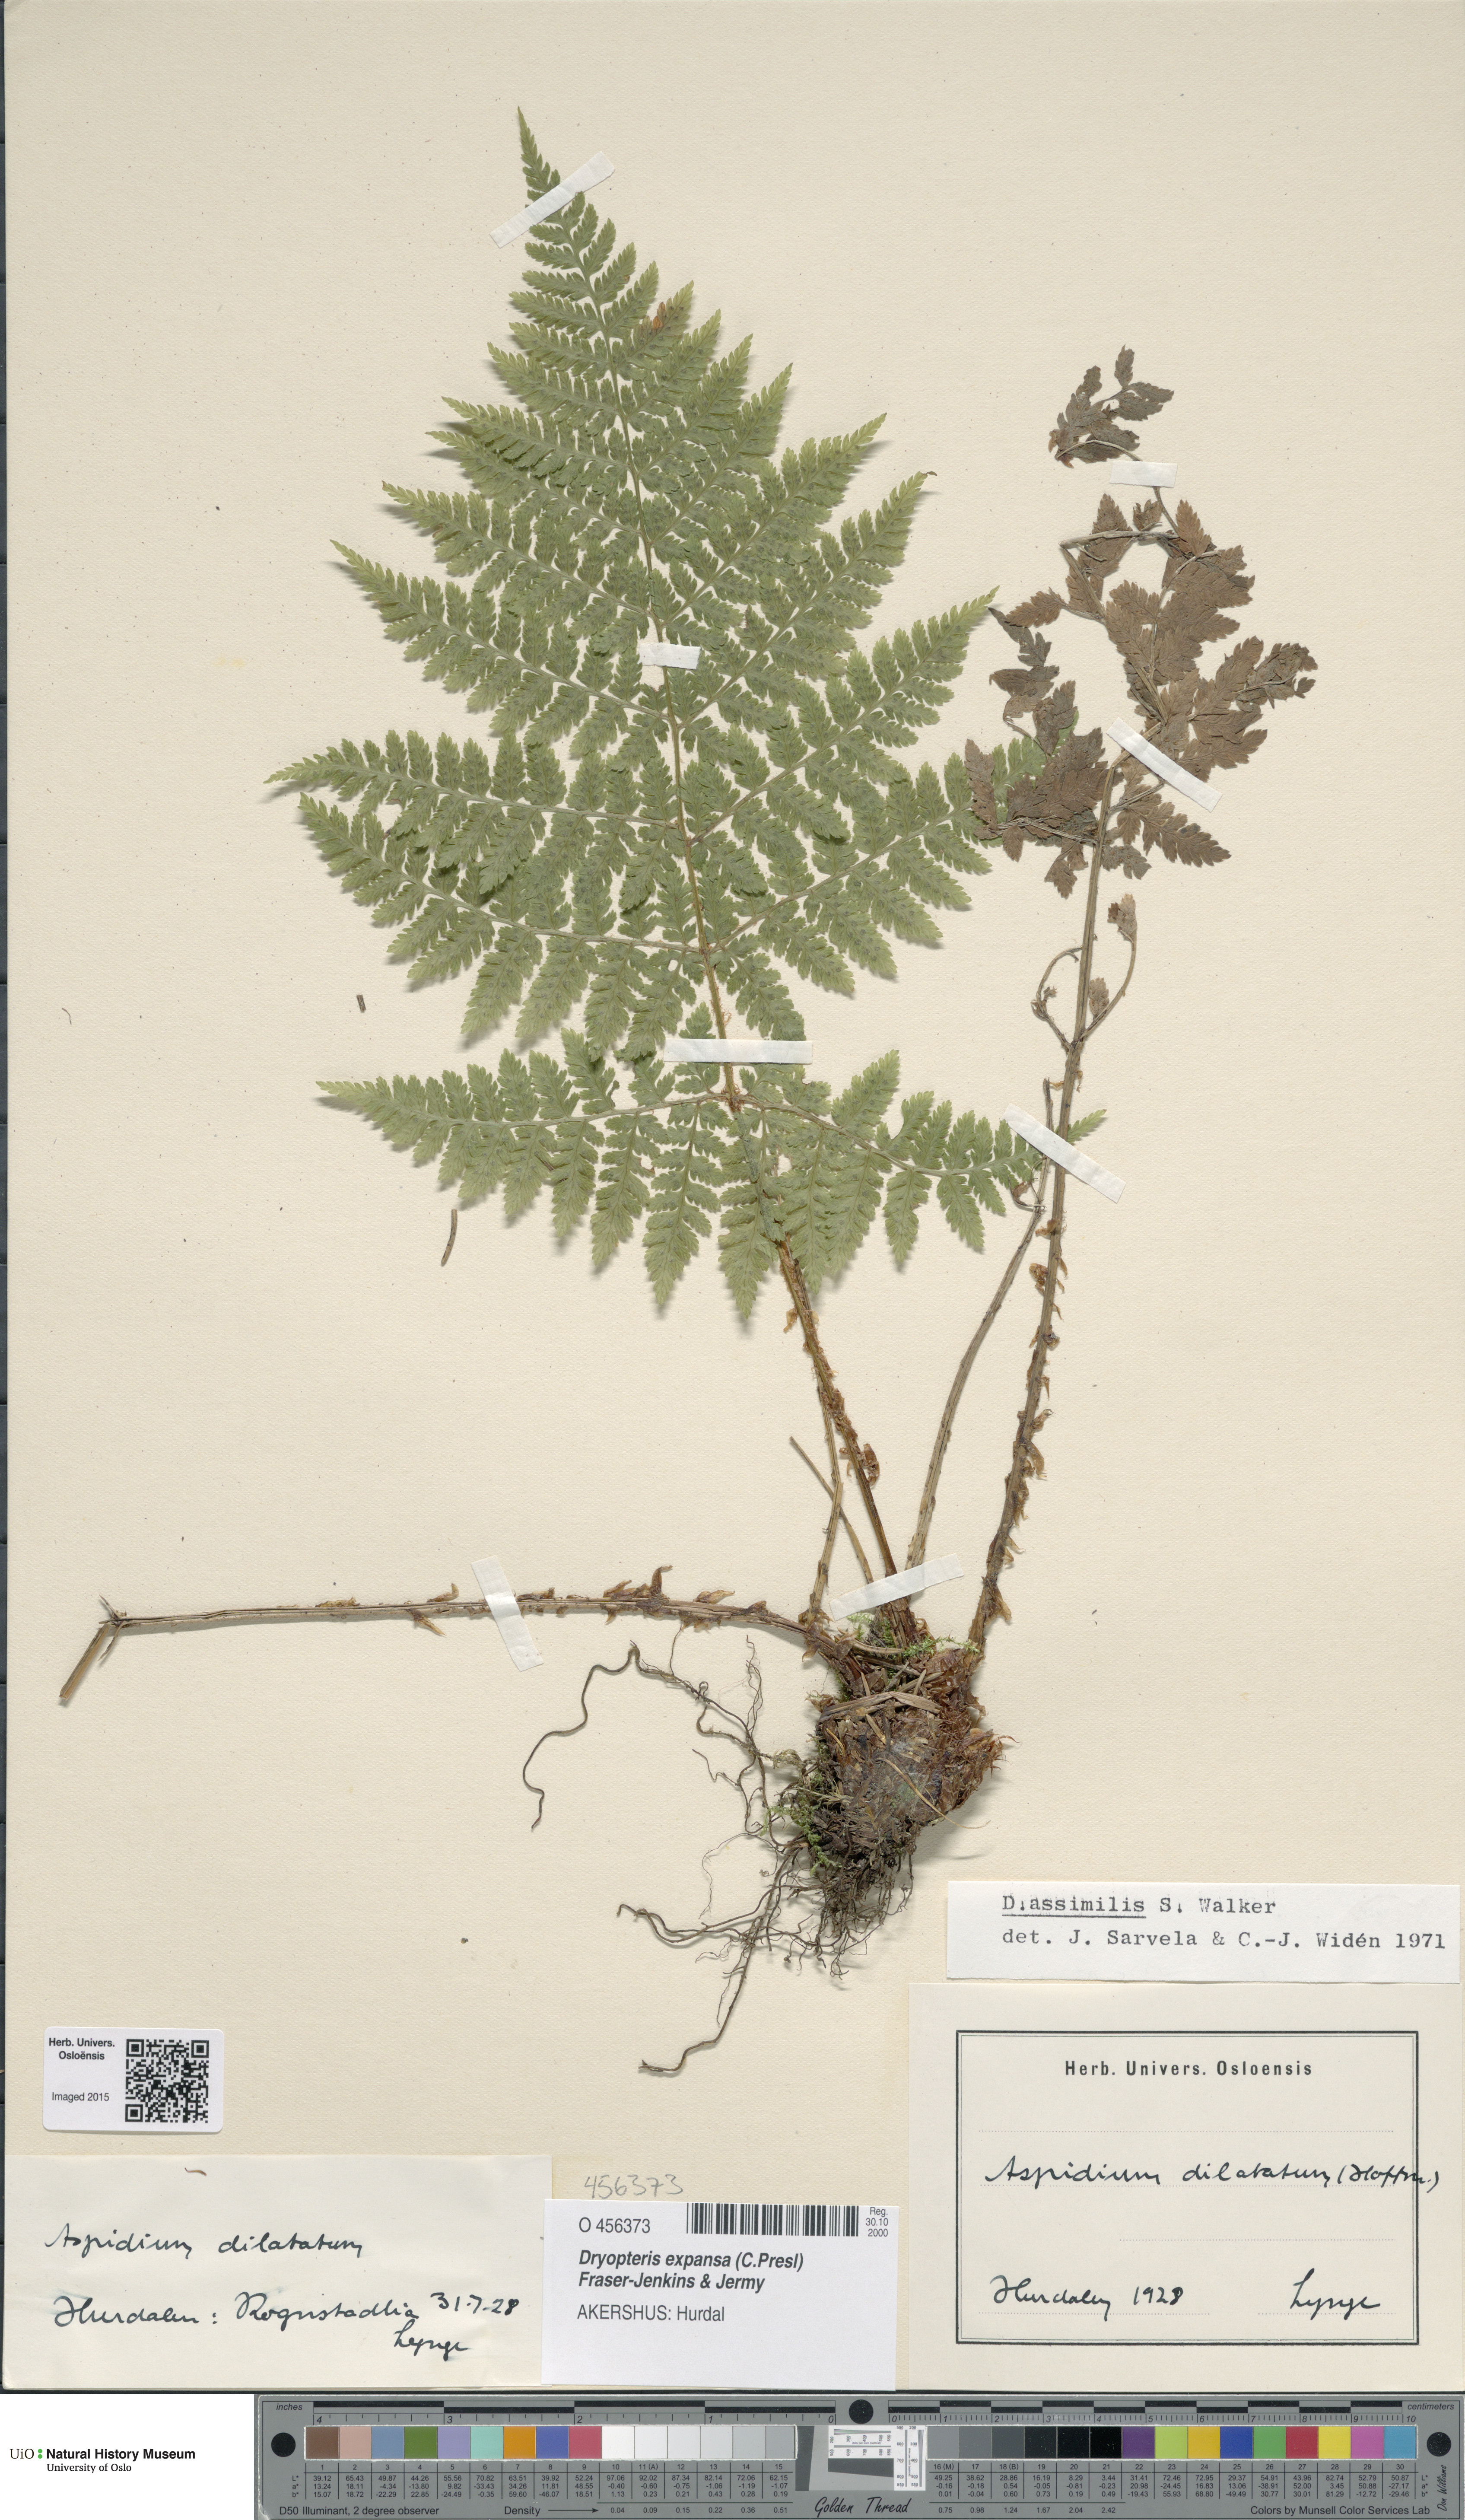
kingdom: Plantae
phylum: Tracheophyta
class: Polypodiopsida
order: Polypodiales
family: Dryopteridaceae
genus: Dryopteris
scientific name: Dryopteris expansa
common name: Northern buckler fern
